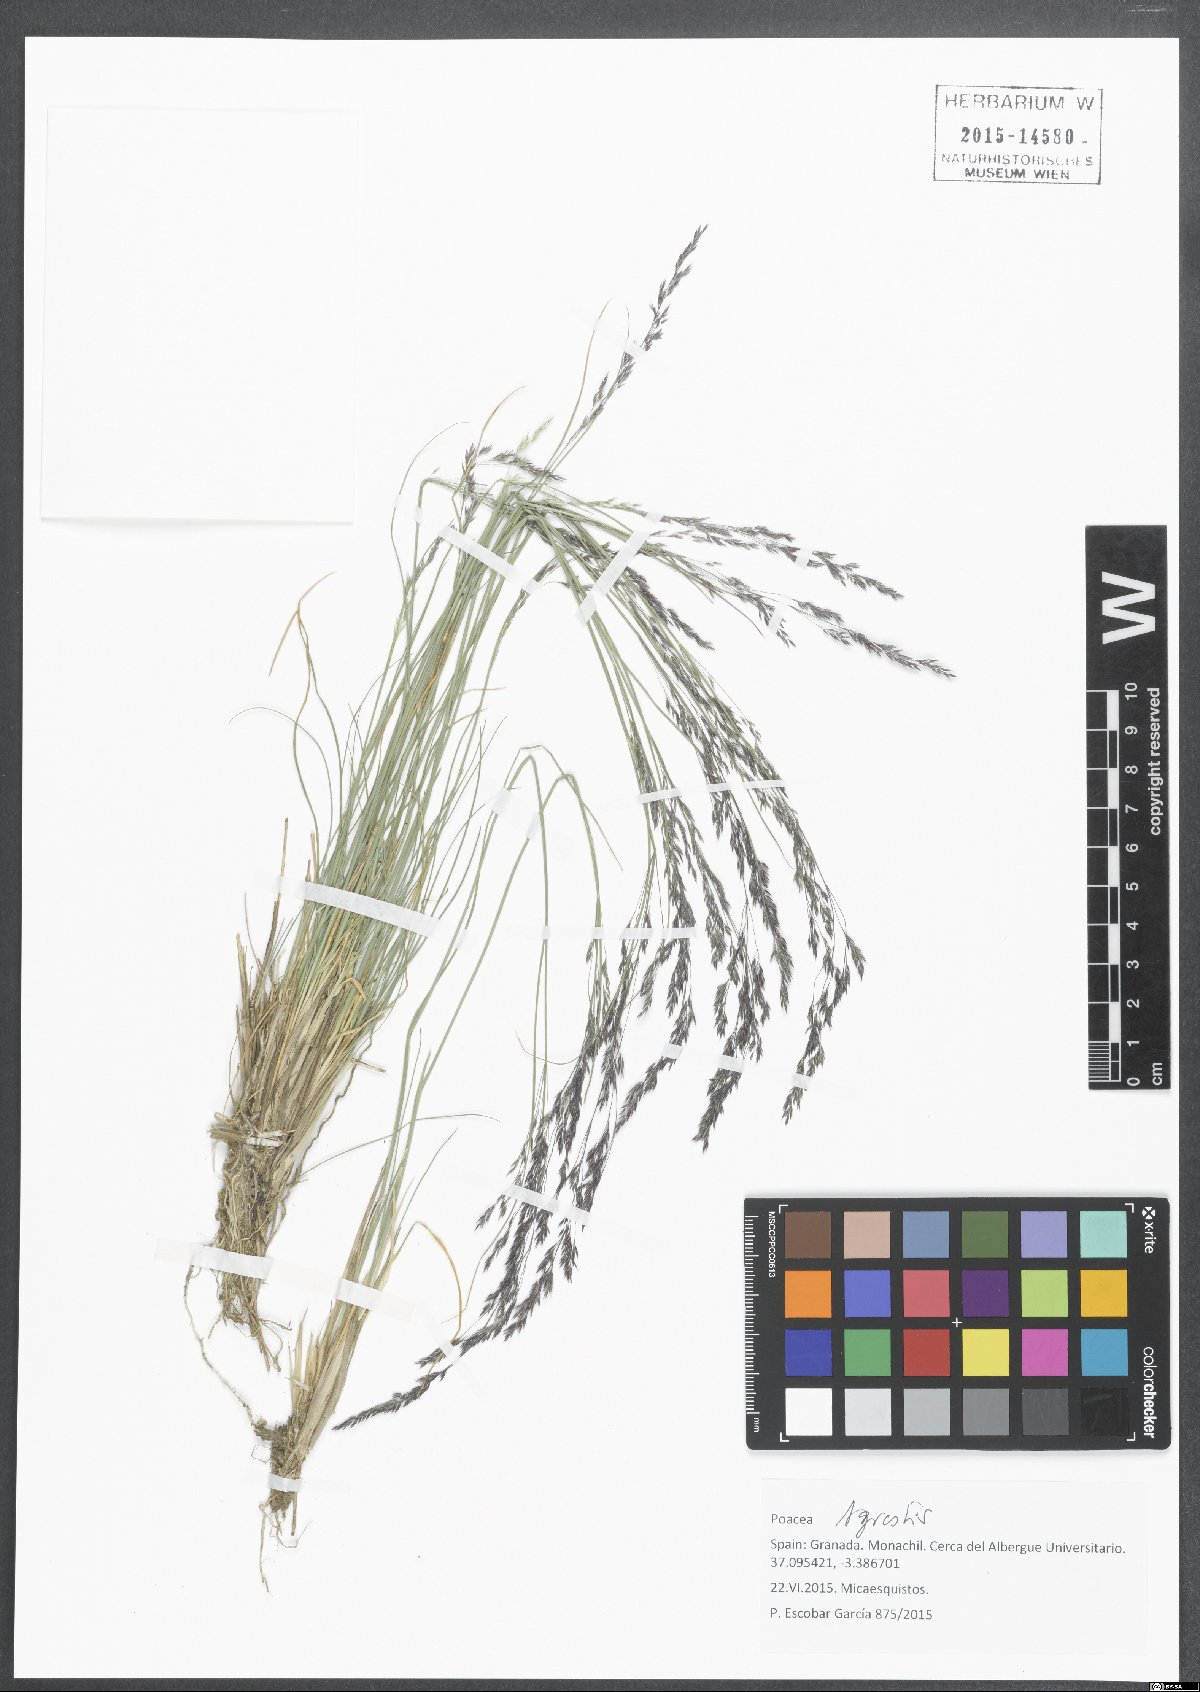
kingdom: Plantae
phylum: Tracheophyta
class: Liliopsida
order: Poales
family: Poaceae
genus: Agrostis
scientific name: Agrostis nevadensis
